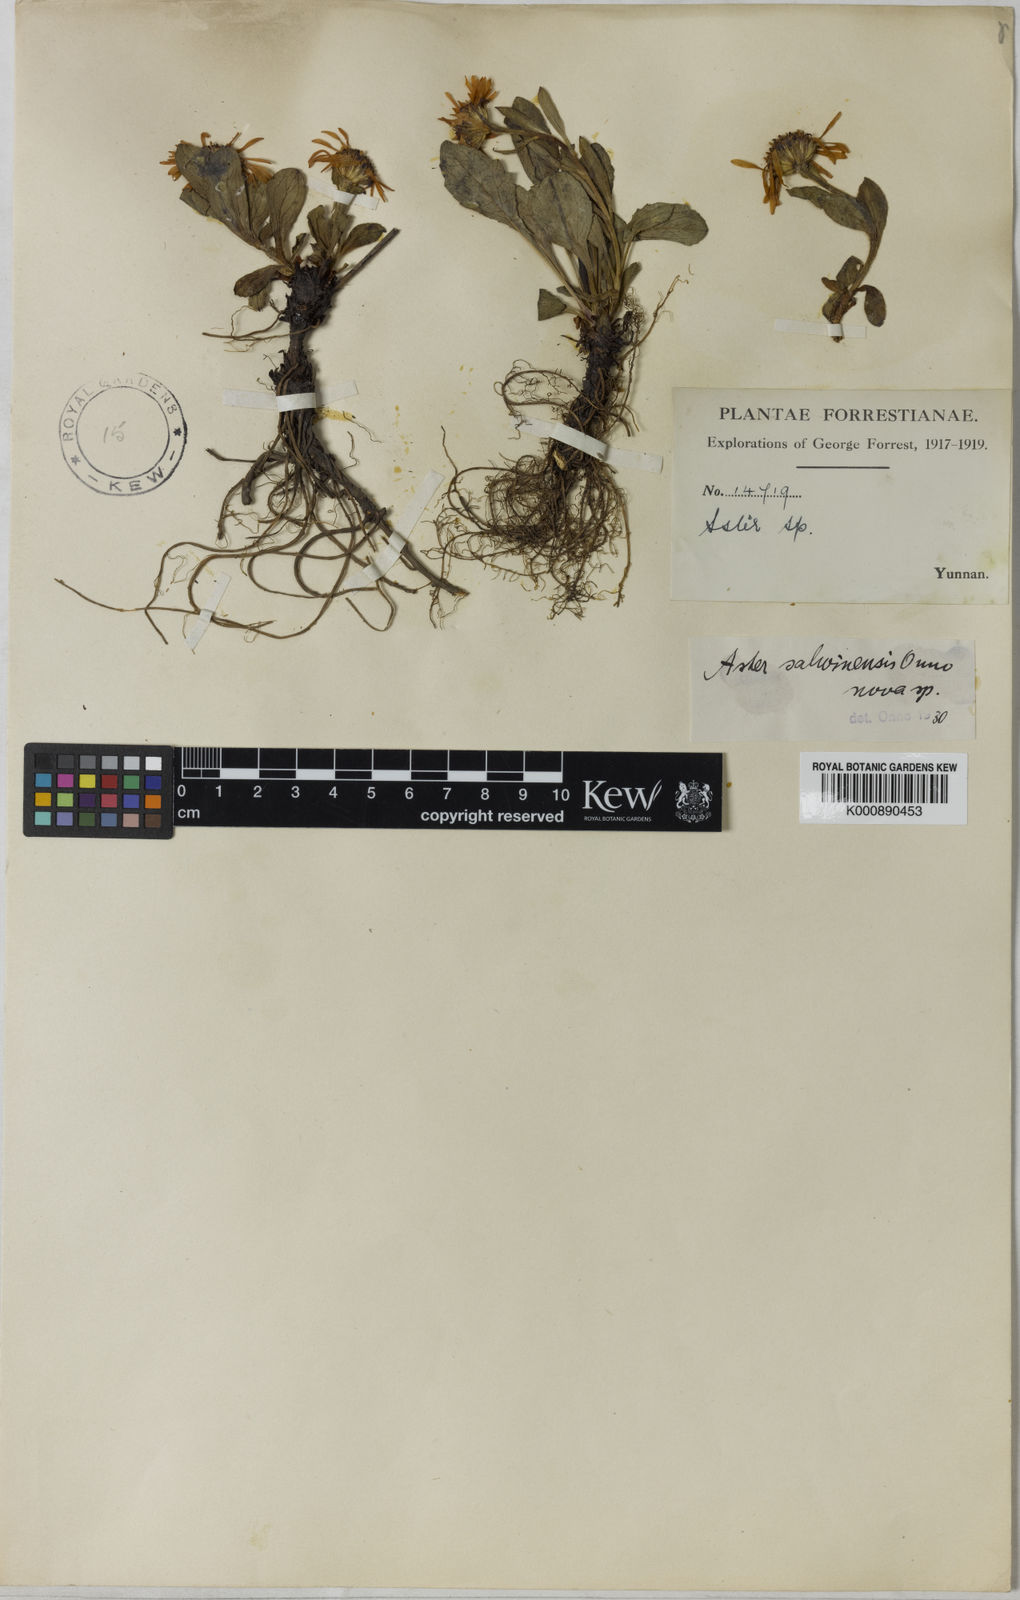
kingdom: Plantae
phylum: Tracheophyta
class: Magnoliopsida
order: Asterales
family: Asteraceae
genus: Tibetiodes
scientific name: Tibetiodes salwinensis
